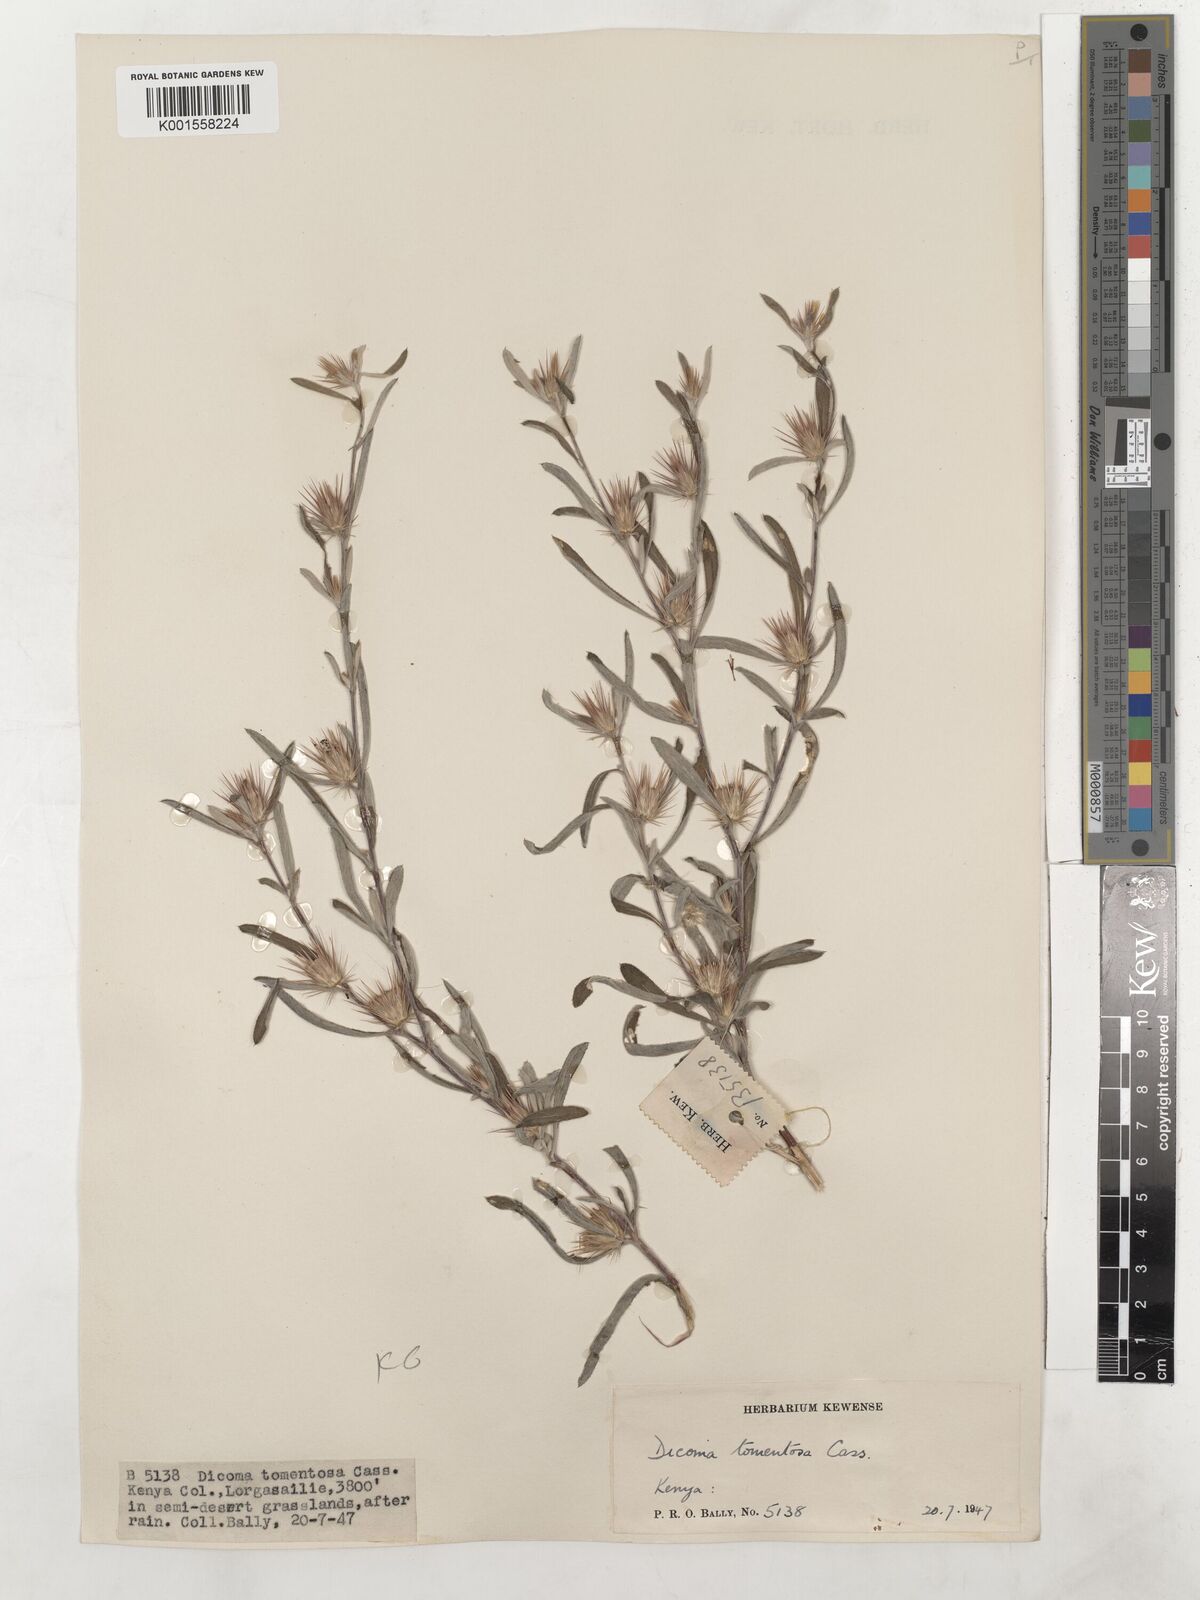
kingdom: Plantae
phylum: Tracheophyta
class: Magnoliopsida
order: Asterales
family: Asteraceae
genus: Dicoma
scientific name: Dicoma tomentosa
